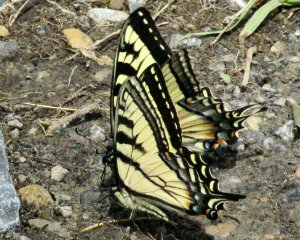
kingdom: Animalia
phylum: Arthropoda
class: Insecta
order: Lepidoptera
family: Papilionidae
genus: Pterourus
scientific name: Pterourus canadensis
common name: Canadian Tiger Swallowtail
